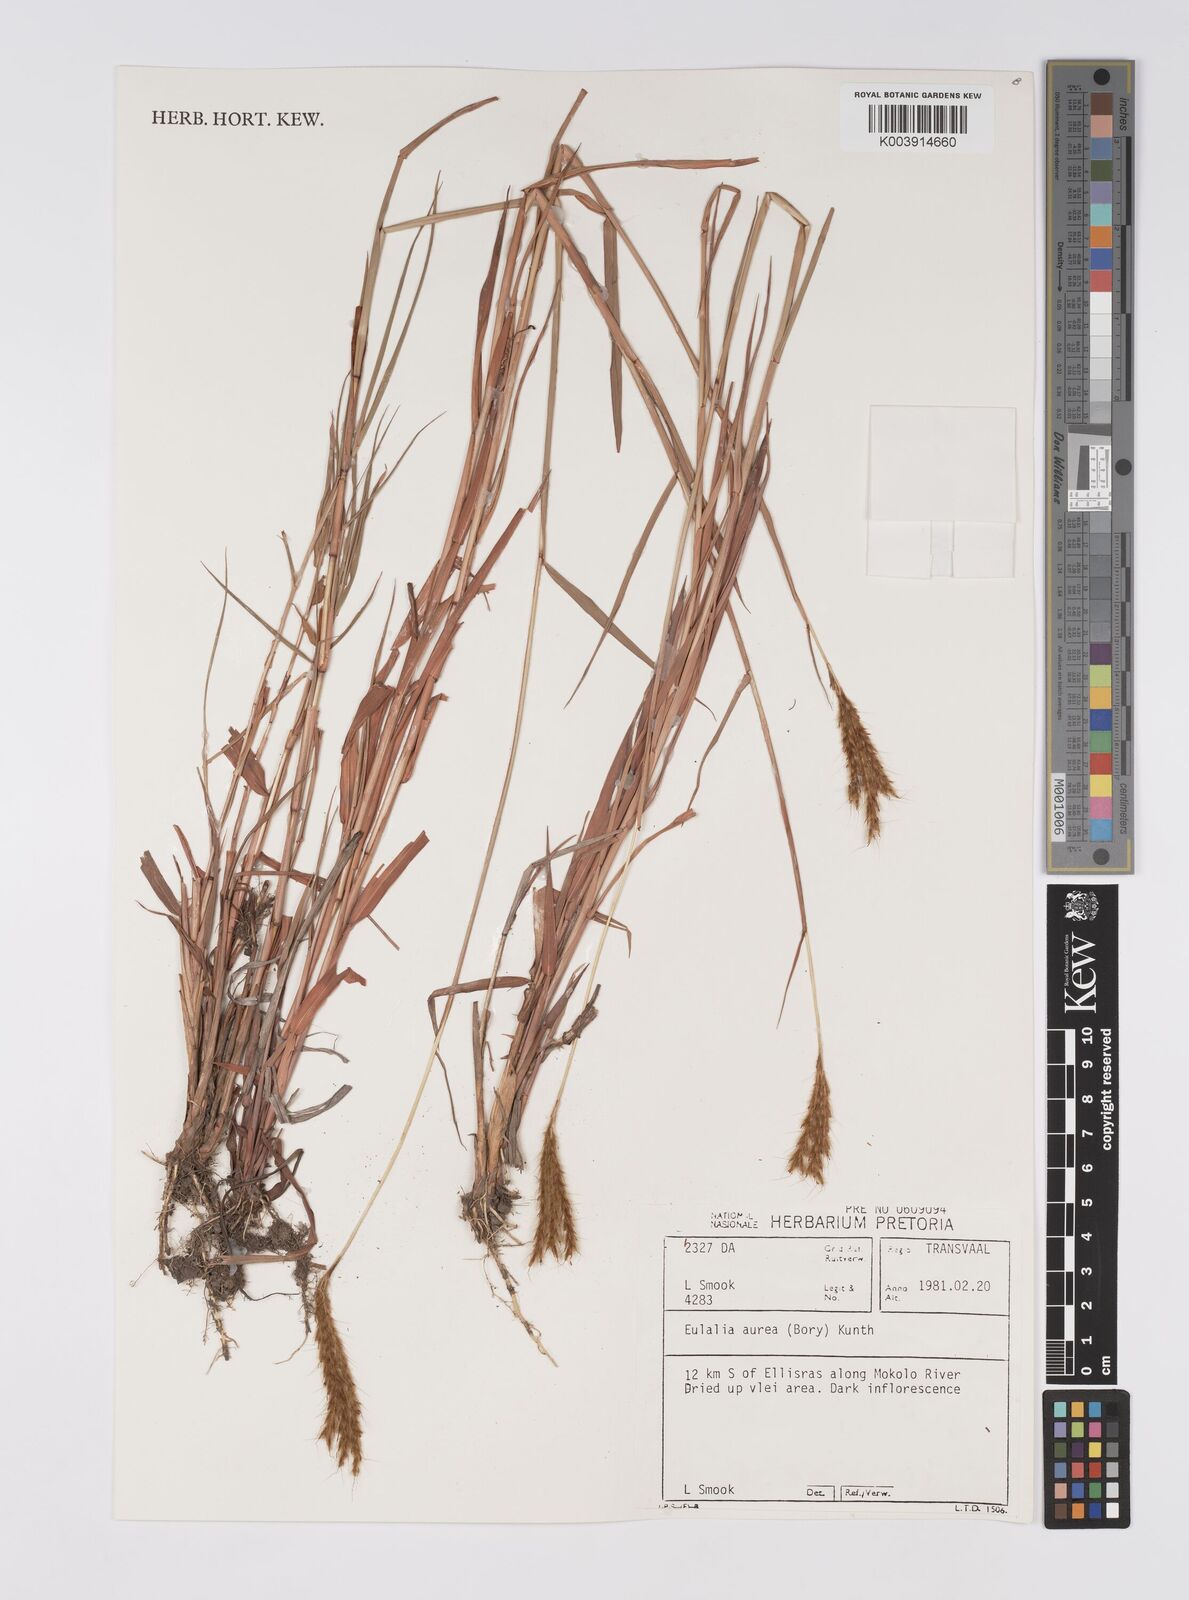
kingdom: Plantae
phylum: Tracheophyta
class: Liliopsida
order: Poales
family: Poaceae
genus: Eulalia
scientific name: Eulalia aurea
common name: Silky browntop
